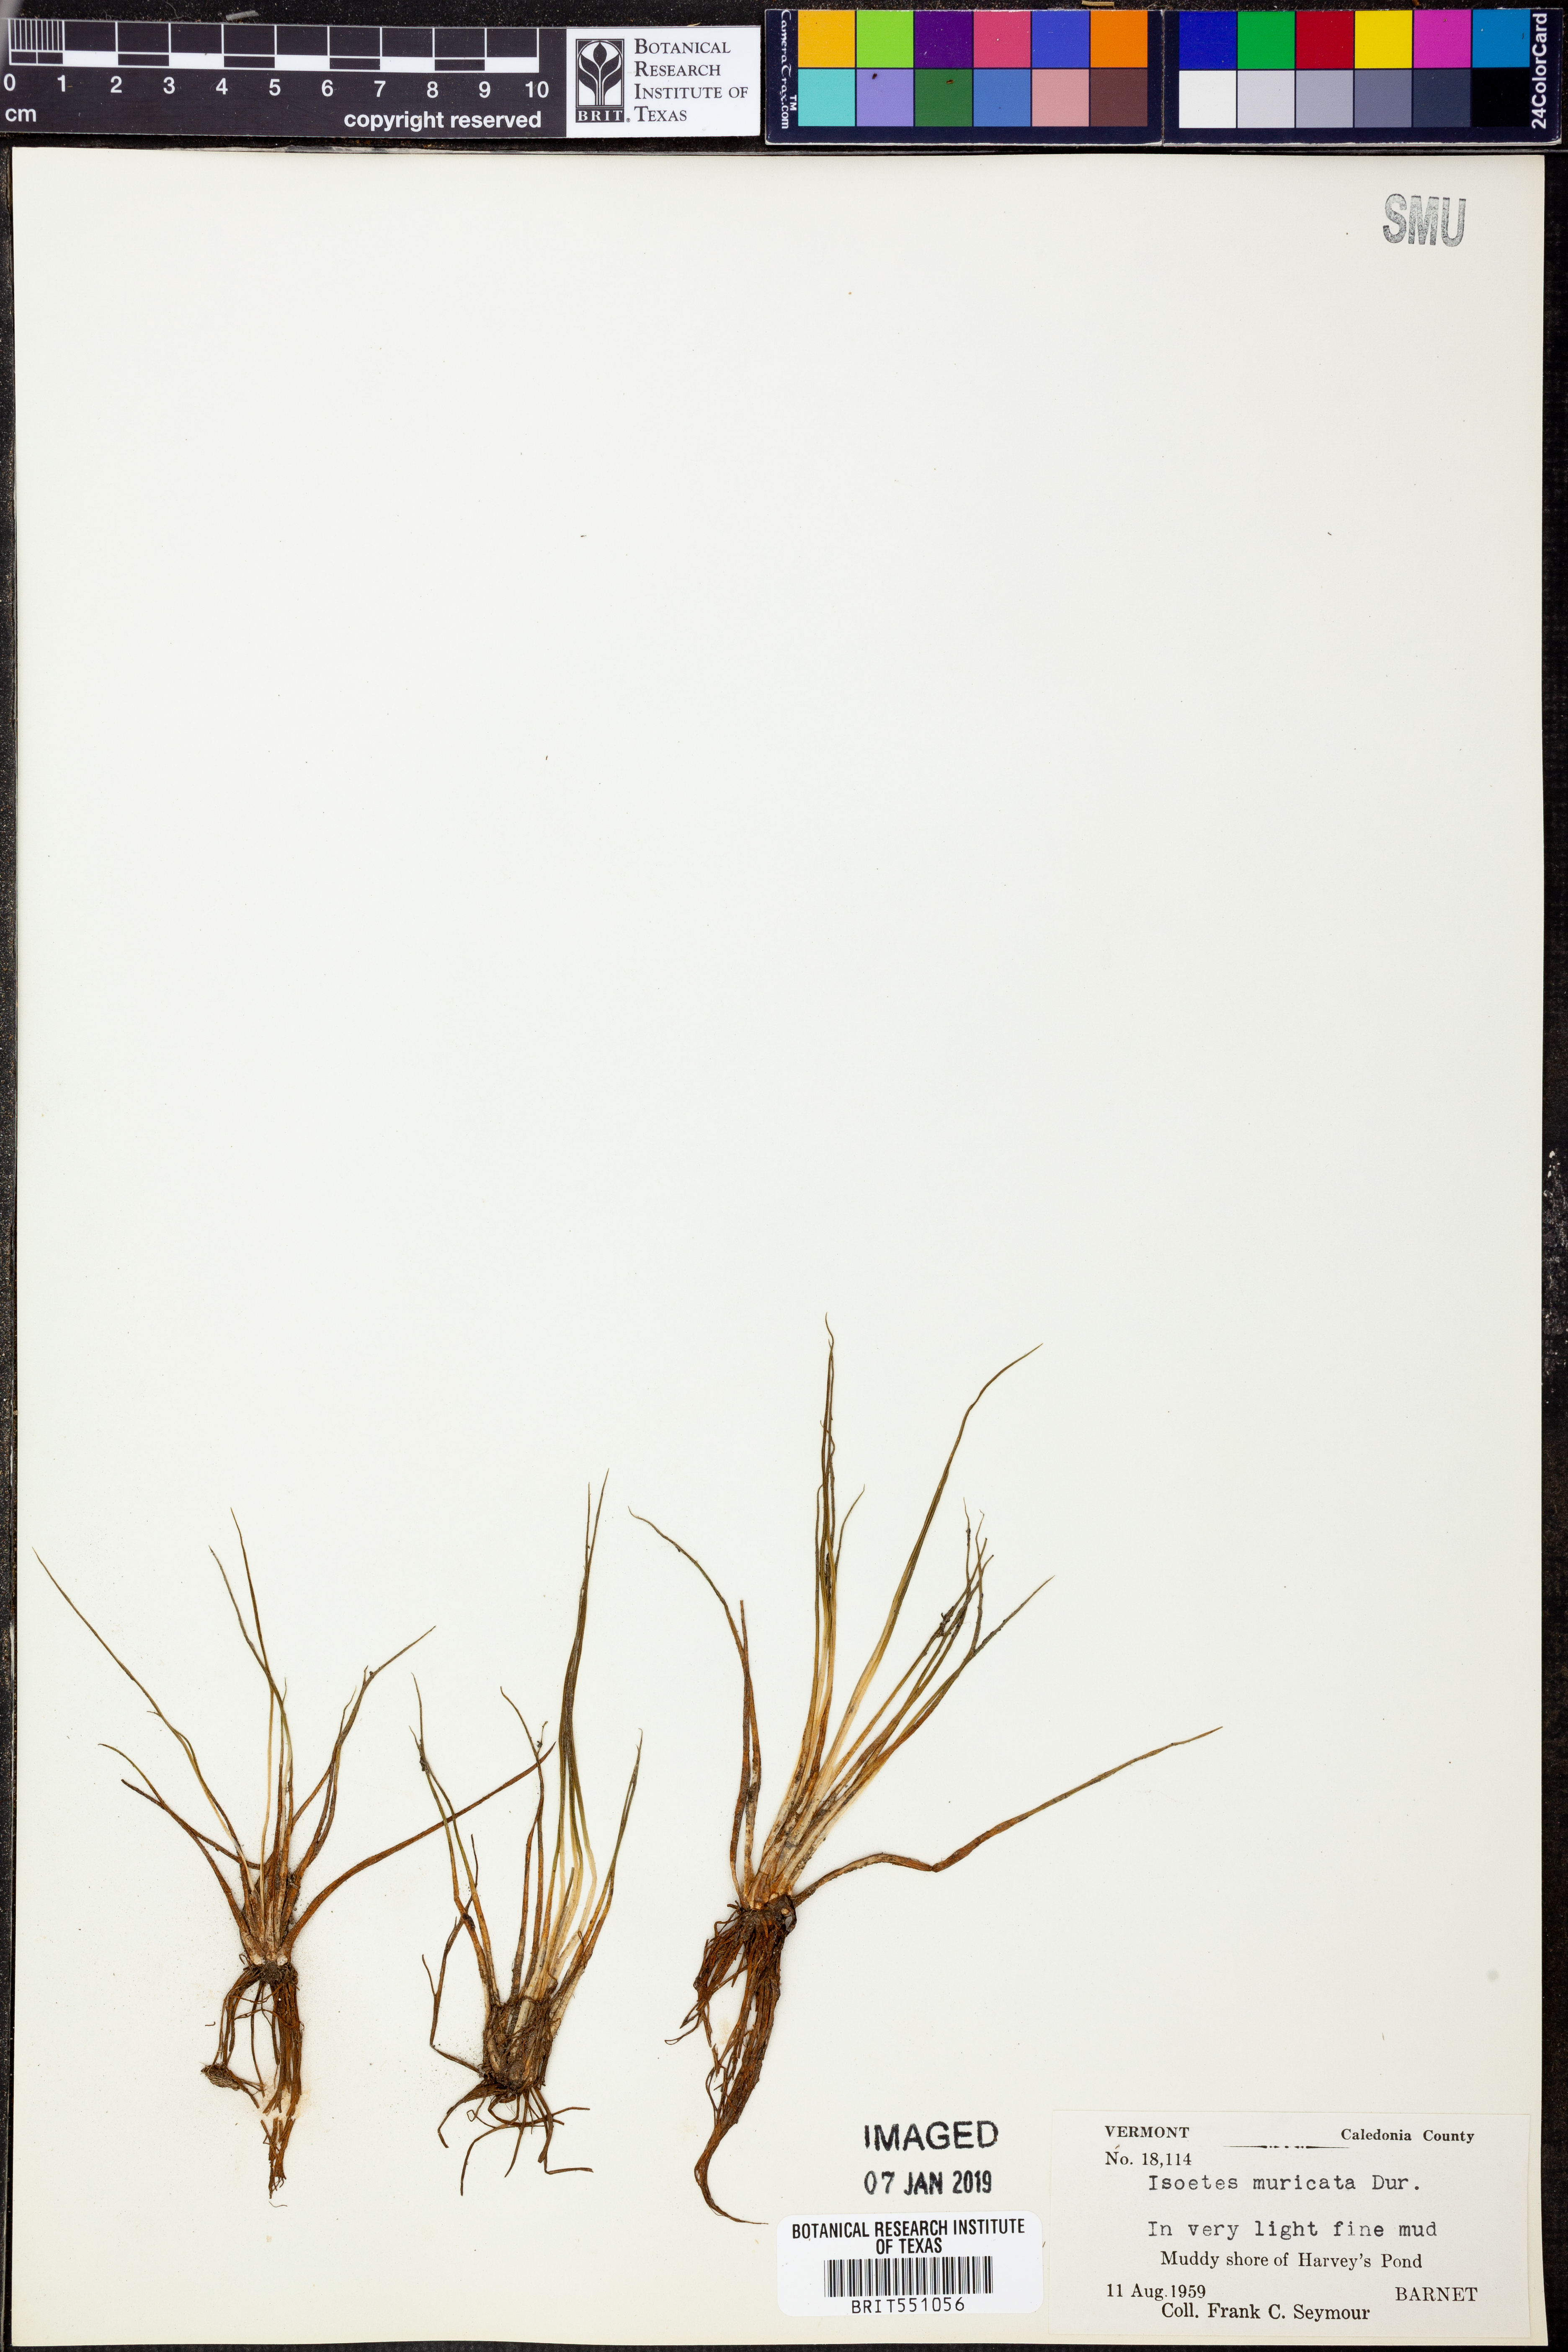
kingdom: Plantae
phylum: Tracheophyta
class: Lycopodiopsida
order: Isoetales
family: Isoetaceae
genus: Isoetes
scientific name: Isoetes echinospora
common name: Spring quillwort
